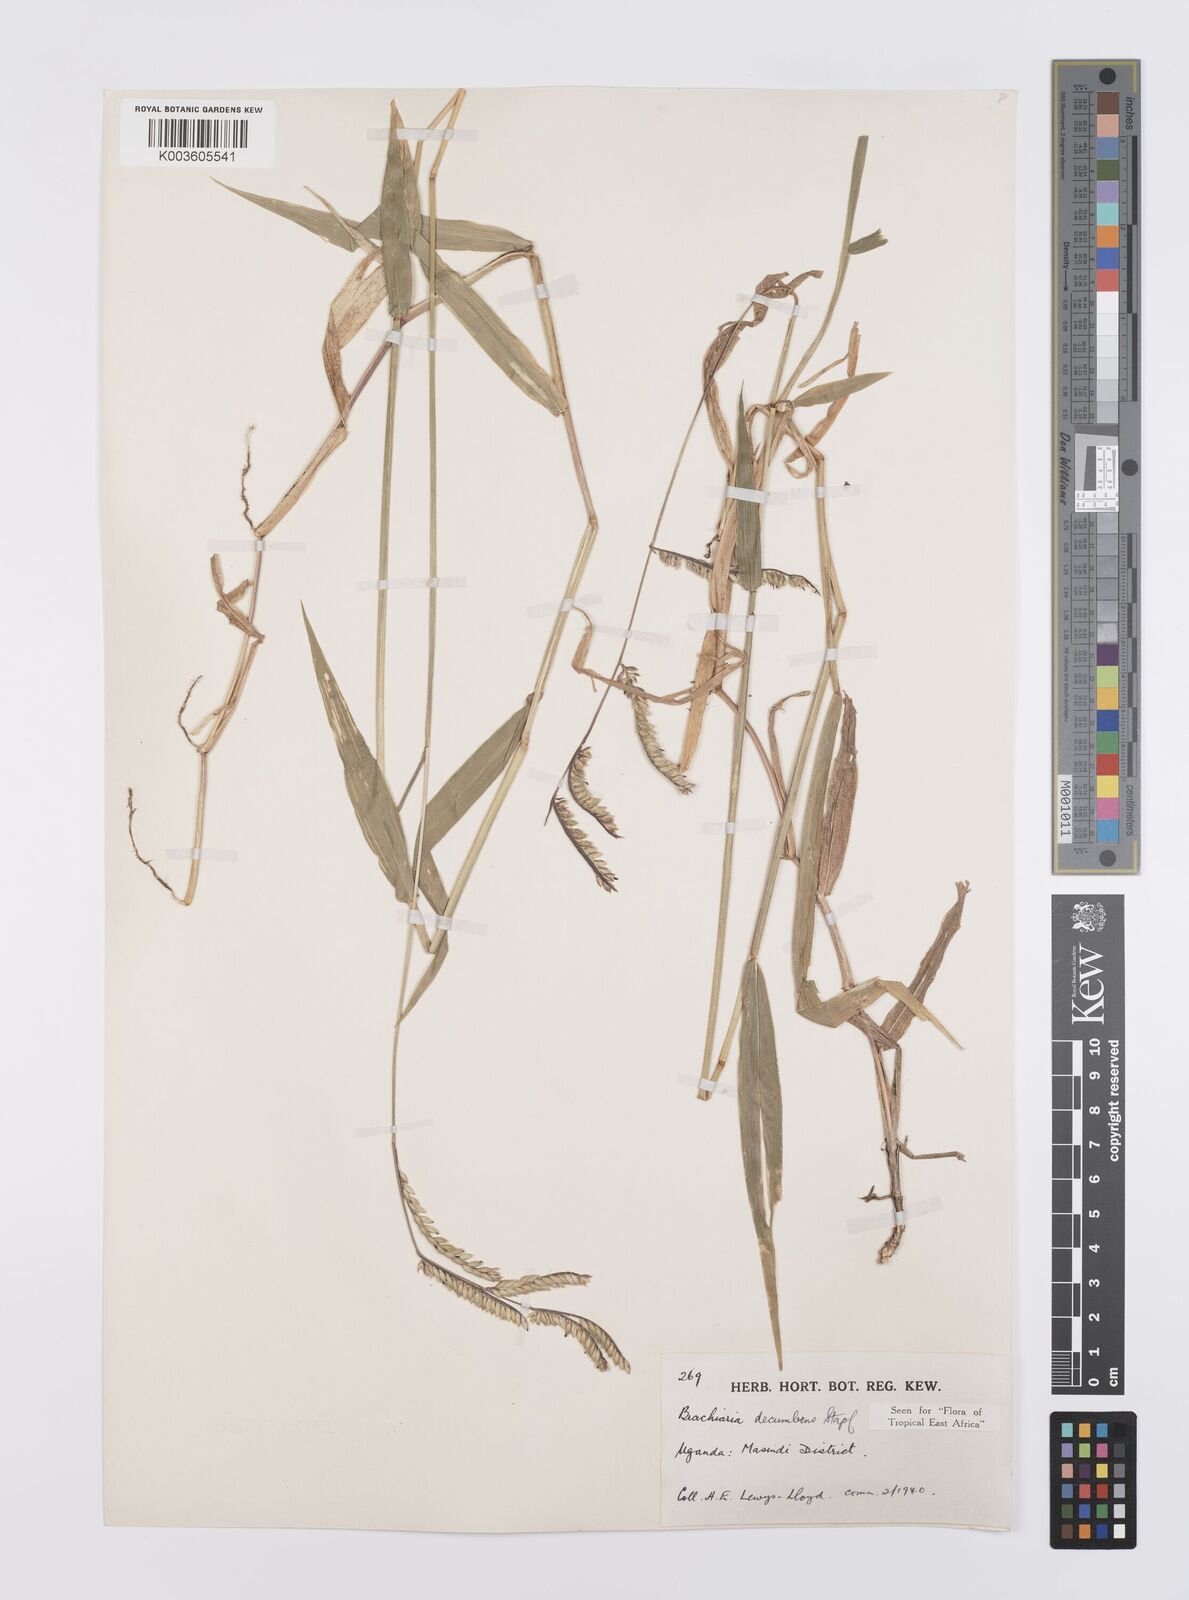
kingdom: Plantae
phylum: Tracheophyta
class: Liliopsida
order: Poales
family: Poaceae
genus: Urochloa
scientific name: Urochloa eminii
